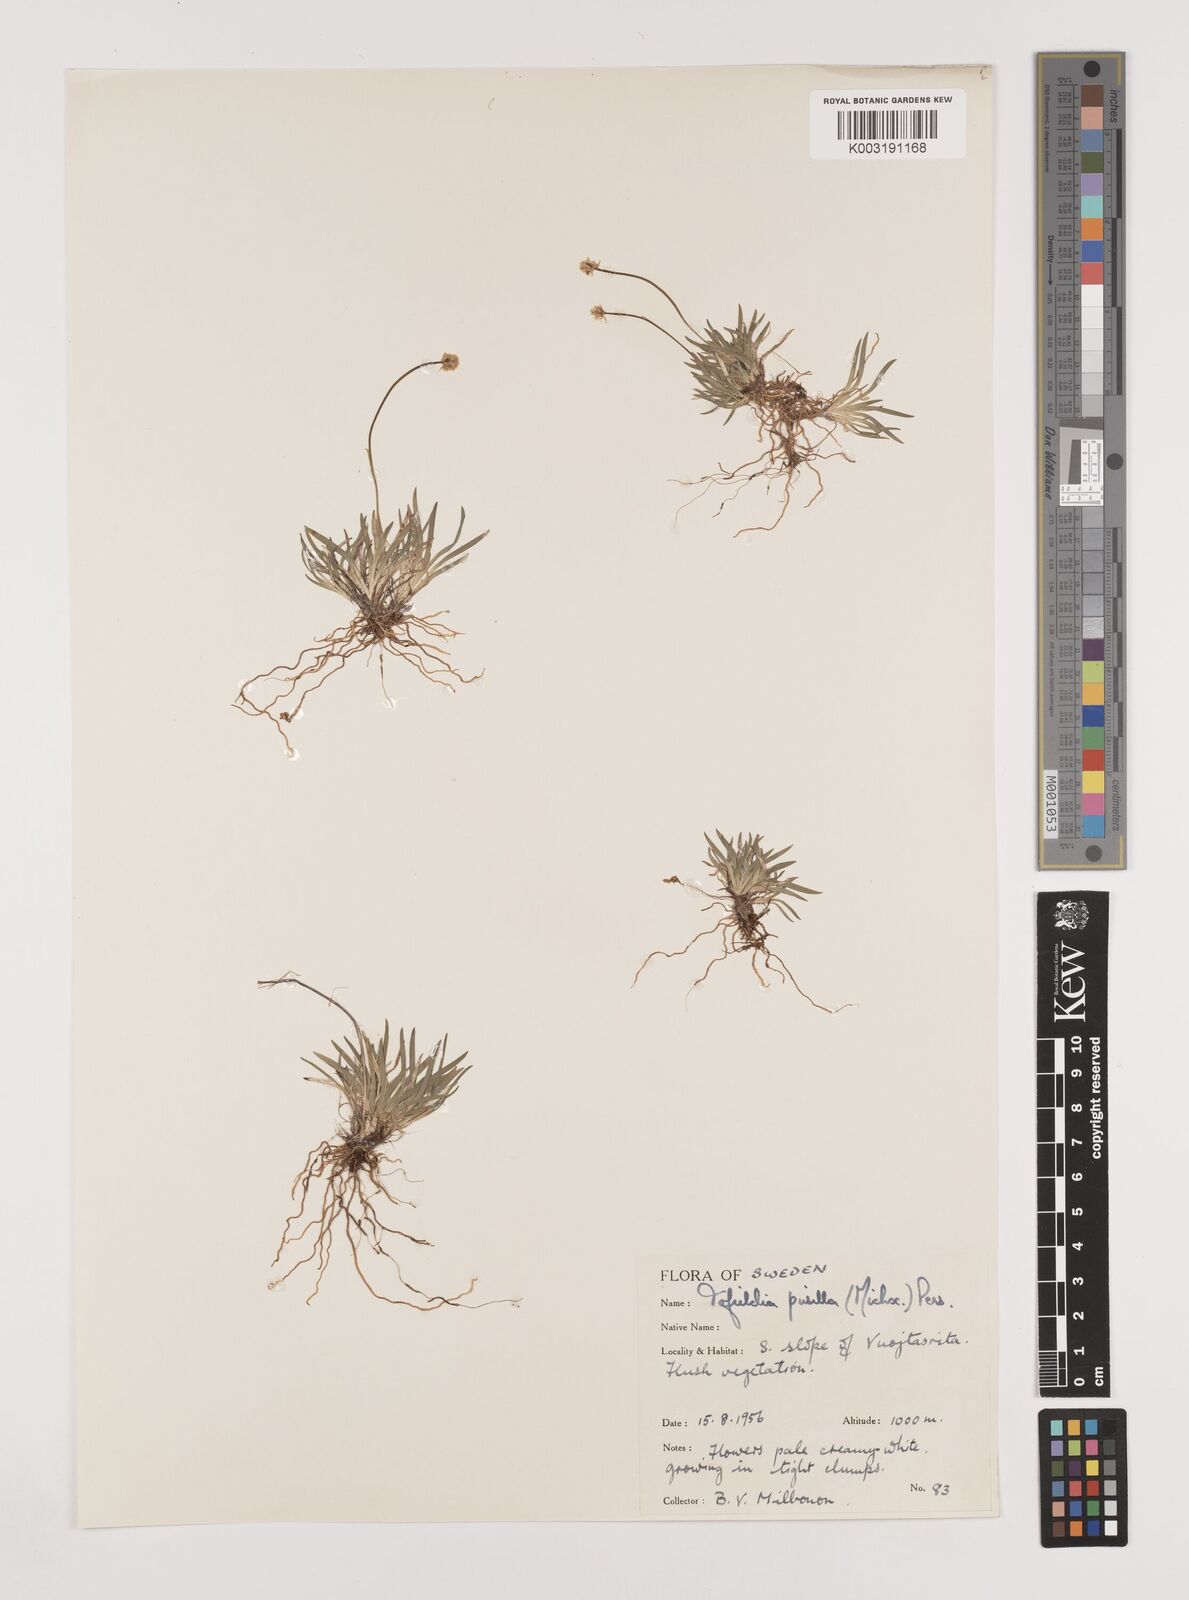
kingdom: Plantae
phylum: Tracheophyta
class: Liliopsida
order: Alismatales
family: Tofieldiaceae
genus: Tofieldia
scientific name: Tofieldia pusilla
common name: Scottish false asphodel
